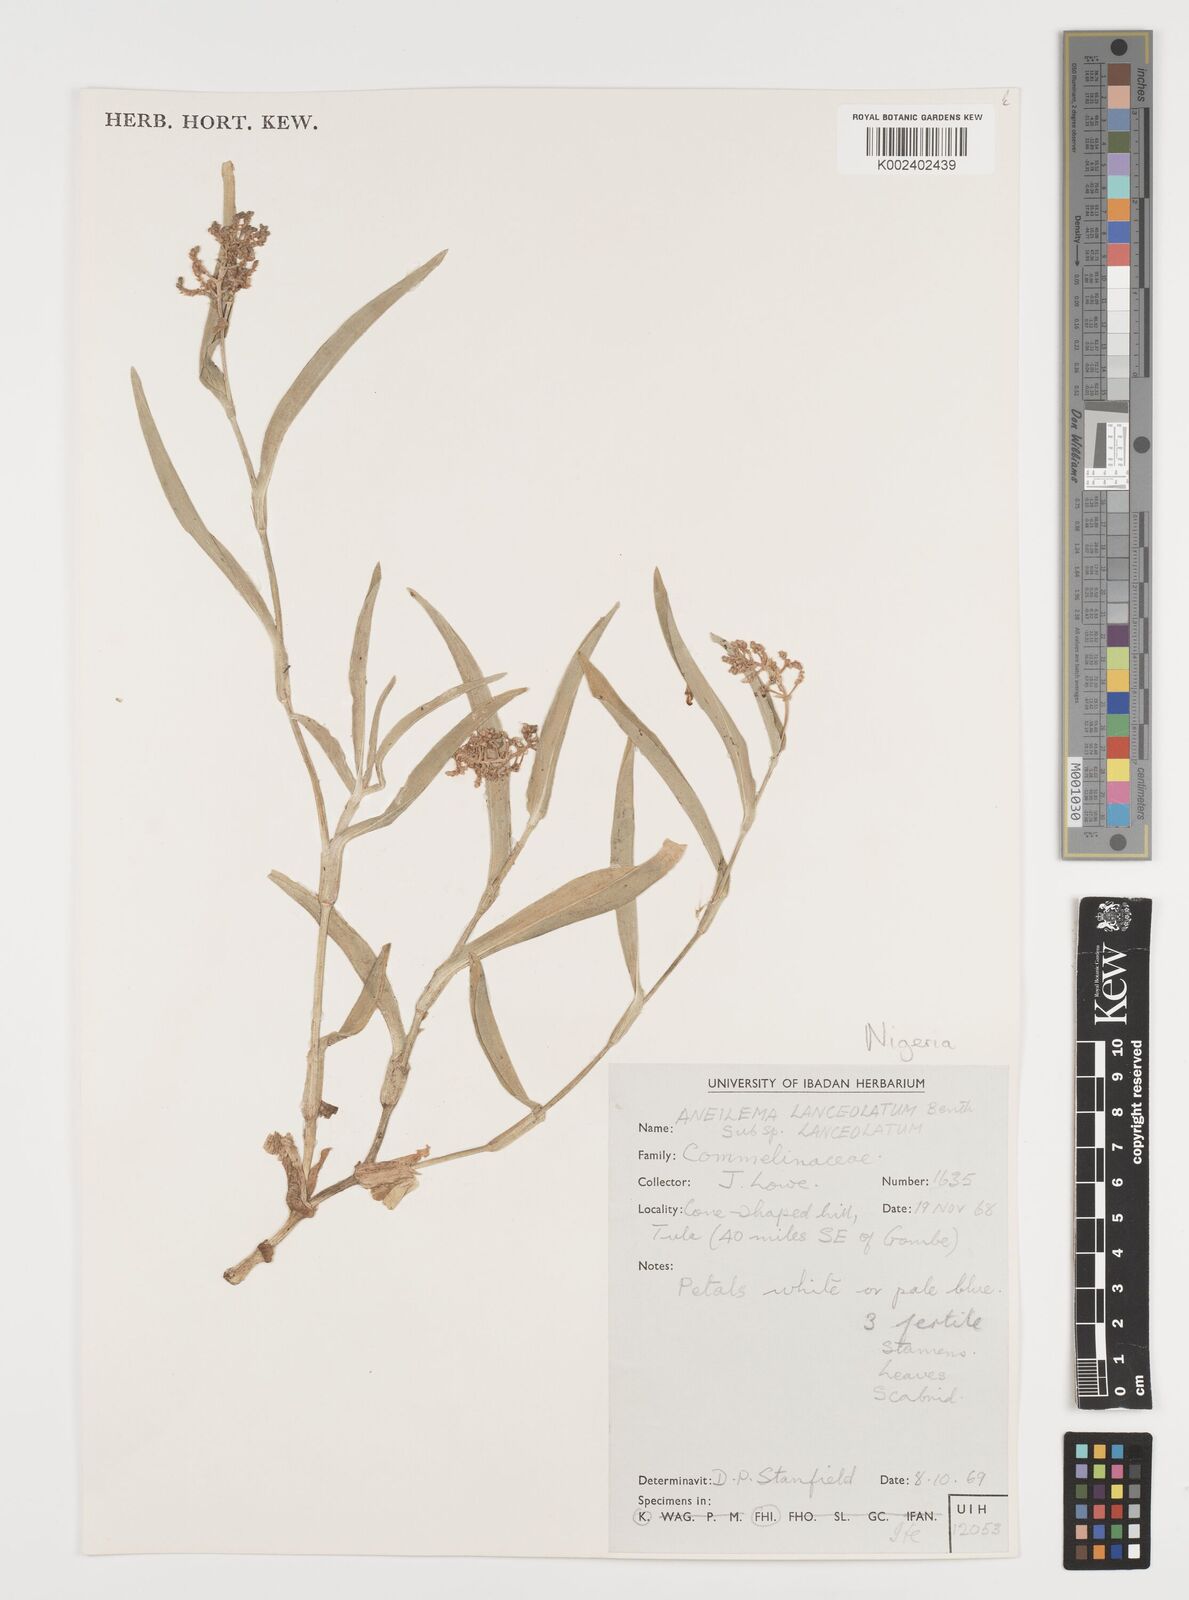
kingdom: Plantae
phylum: Tracheophyta
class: Liliopsida
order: Commelinales
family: Commelinaceae
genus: Aneilema
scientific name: Aneilema lanceolatum
